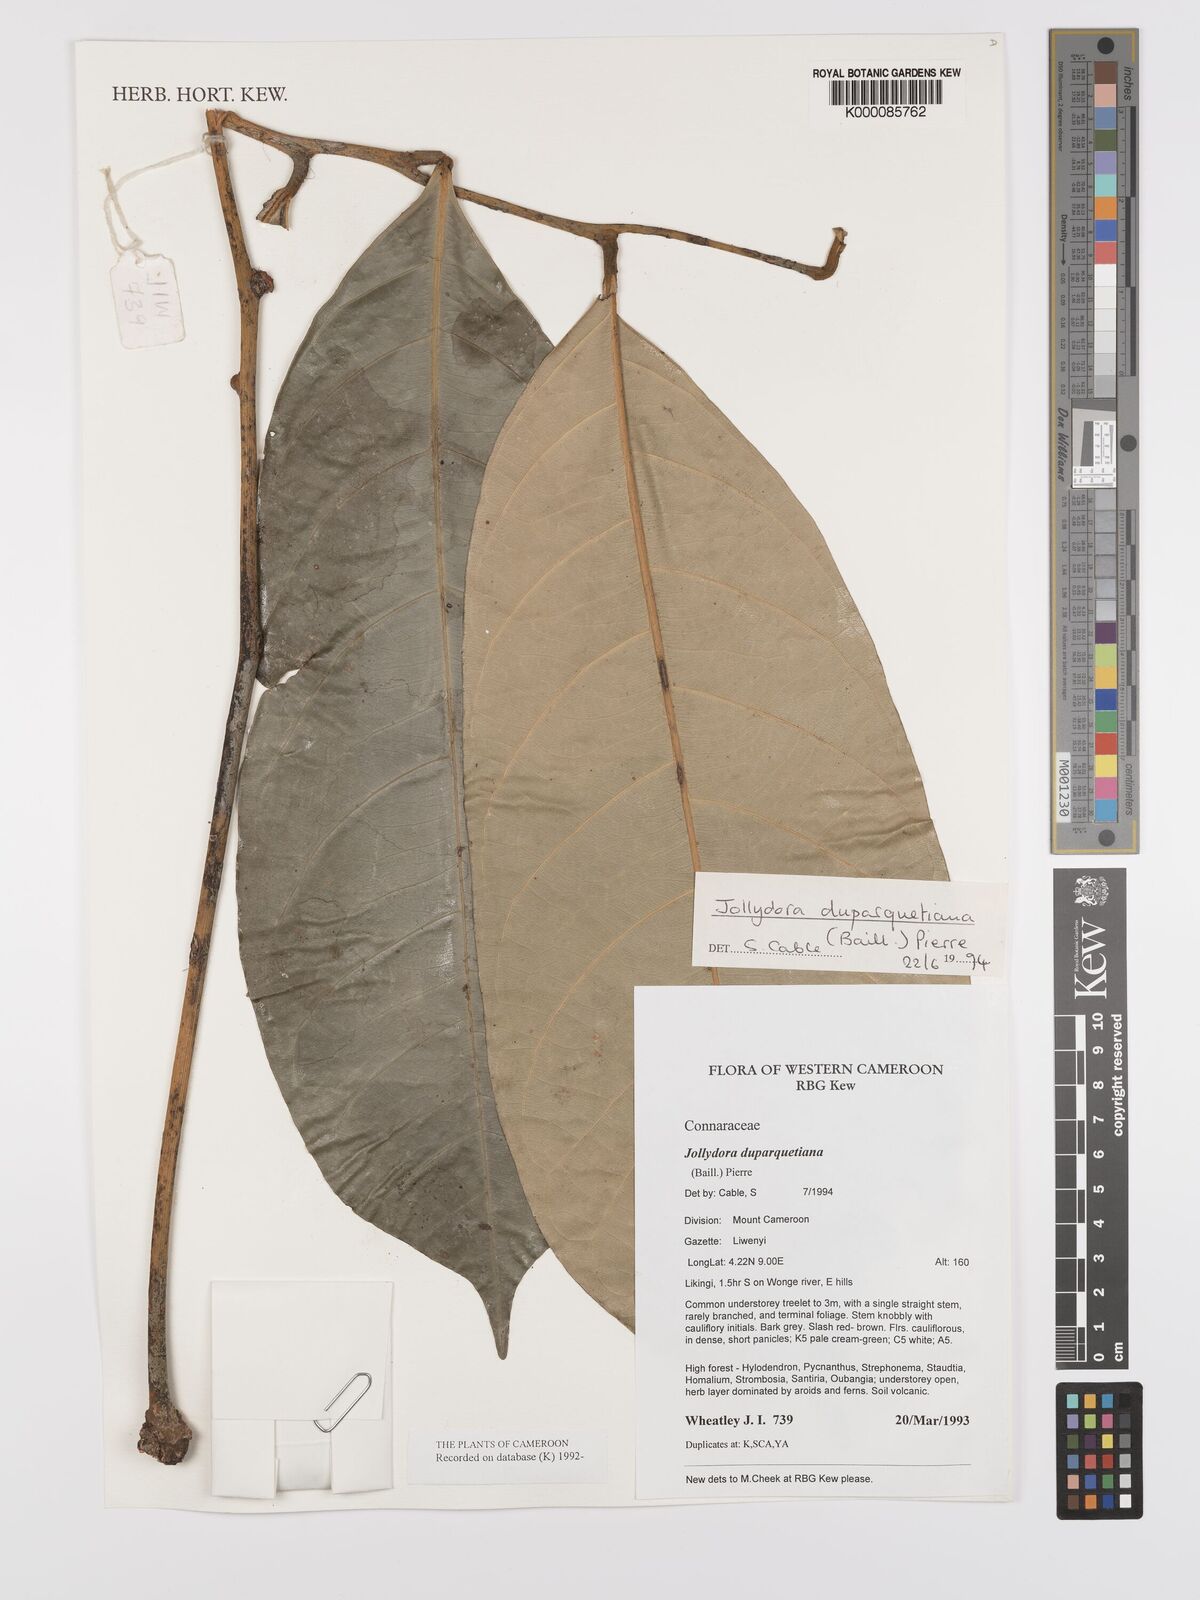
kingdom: Plantae
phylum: Tracheophyta
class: Magnoliopsida
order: Oxalidales
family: Connaraceae
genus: Jollydora
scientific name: Jollydora duparquetiana
